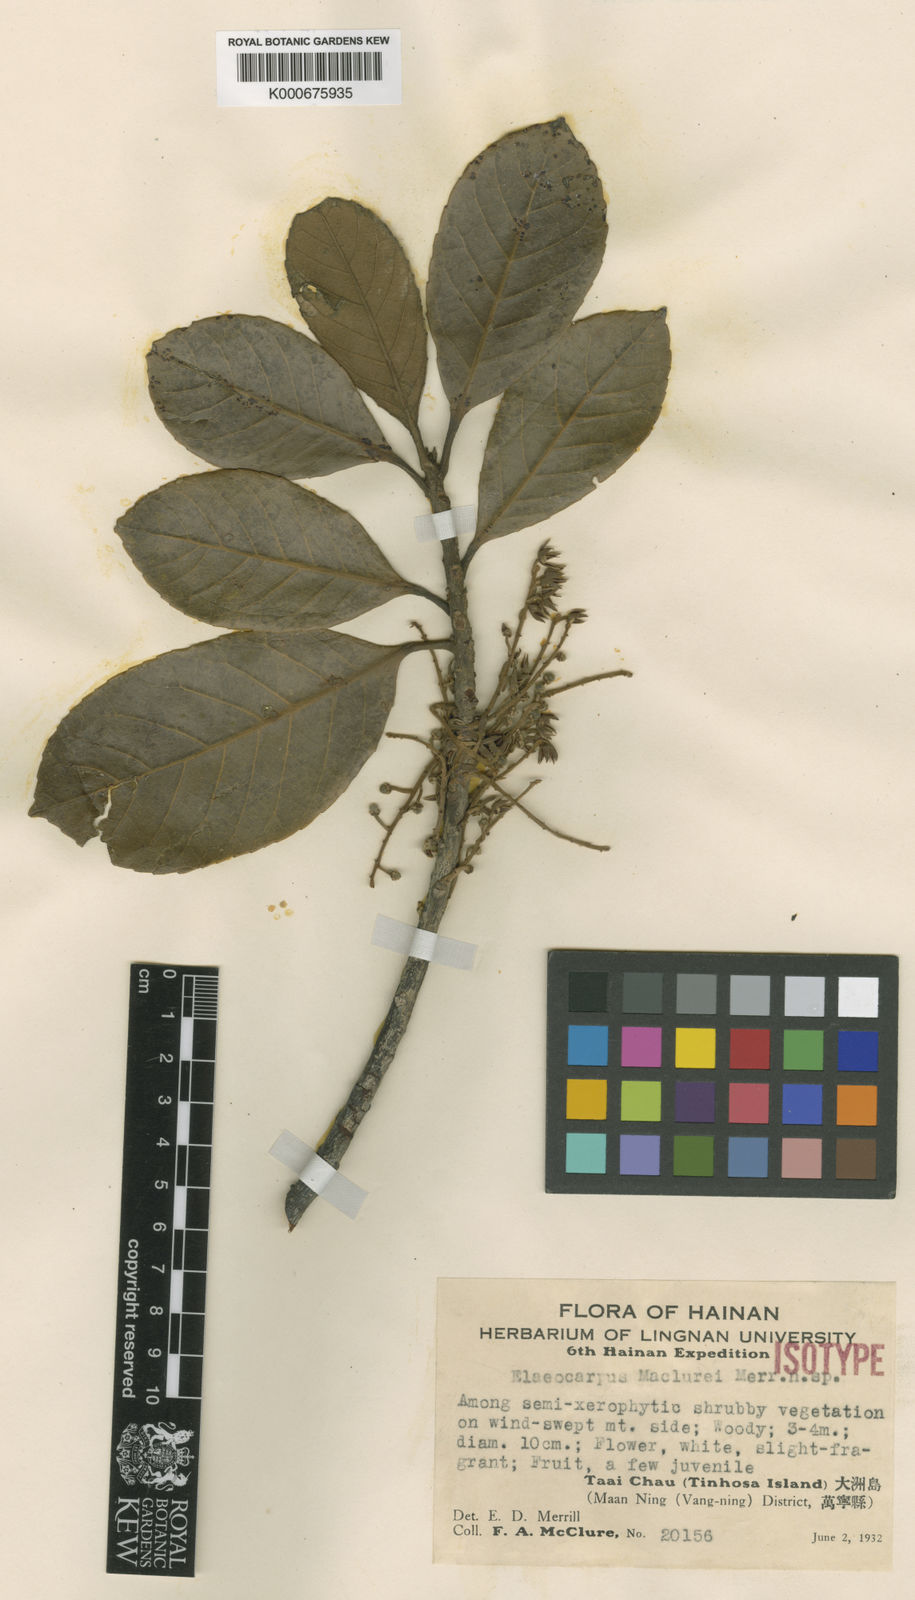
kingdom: Plantae
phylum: Tracheophyta
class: Magnoliopsida
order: Oxalidales
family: Elaeocarpaceae
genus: Elaeocarpus
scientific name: Elaeocarpus limitaneus
